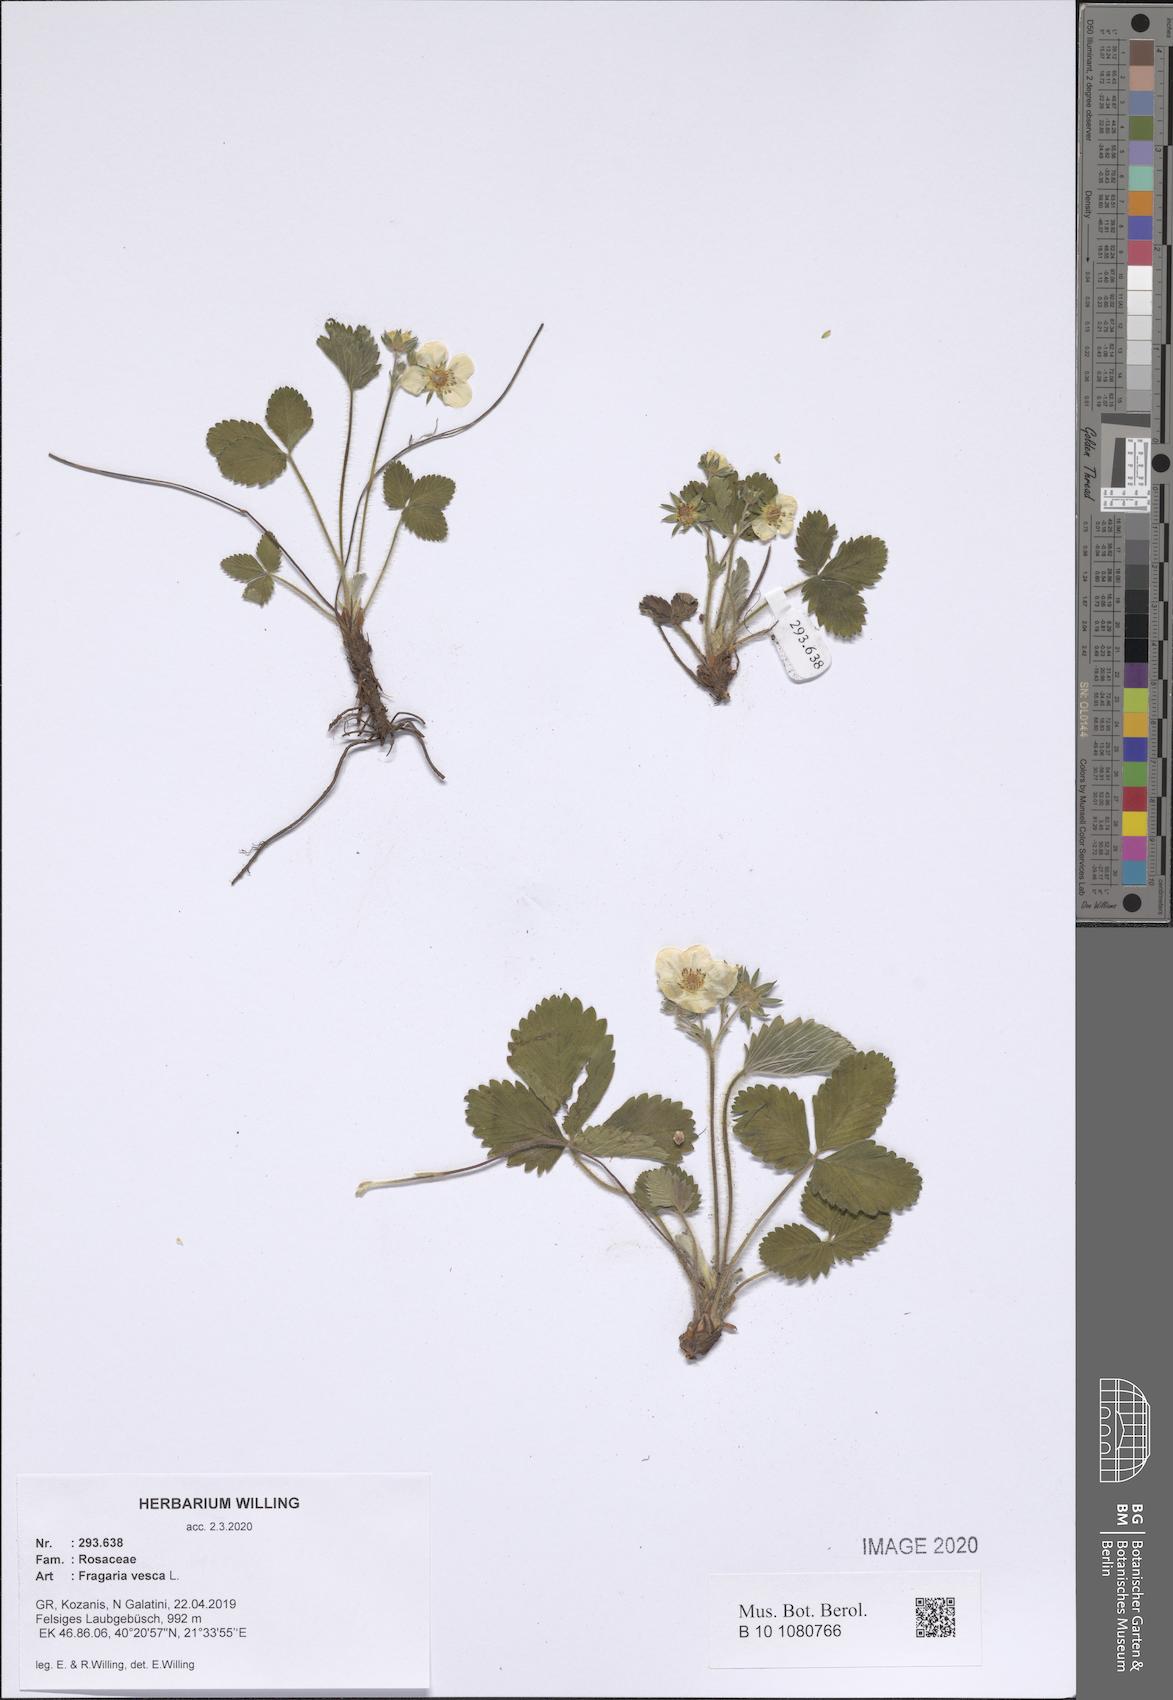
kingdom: Plantae
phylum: Tracheophyta
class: Magnoliopsida
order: Rosales
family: Rosaceae
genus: Fragaria
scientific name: Fragaria vesca
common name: Wild strawberry
